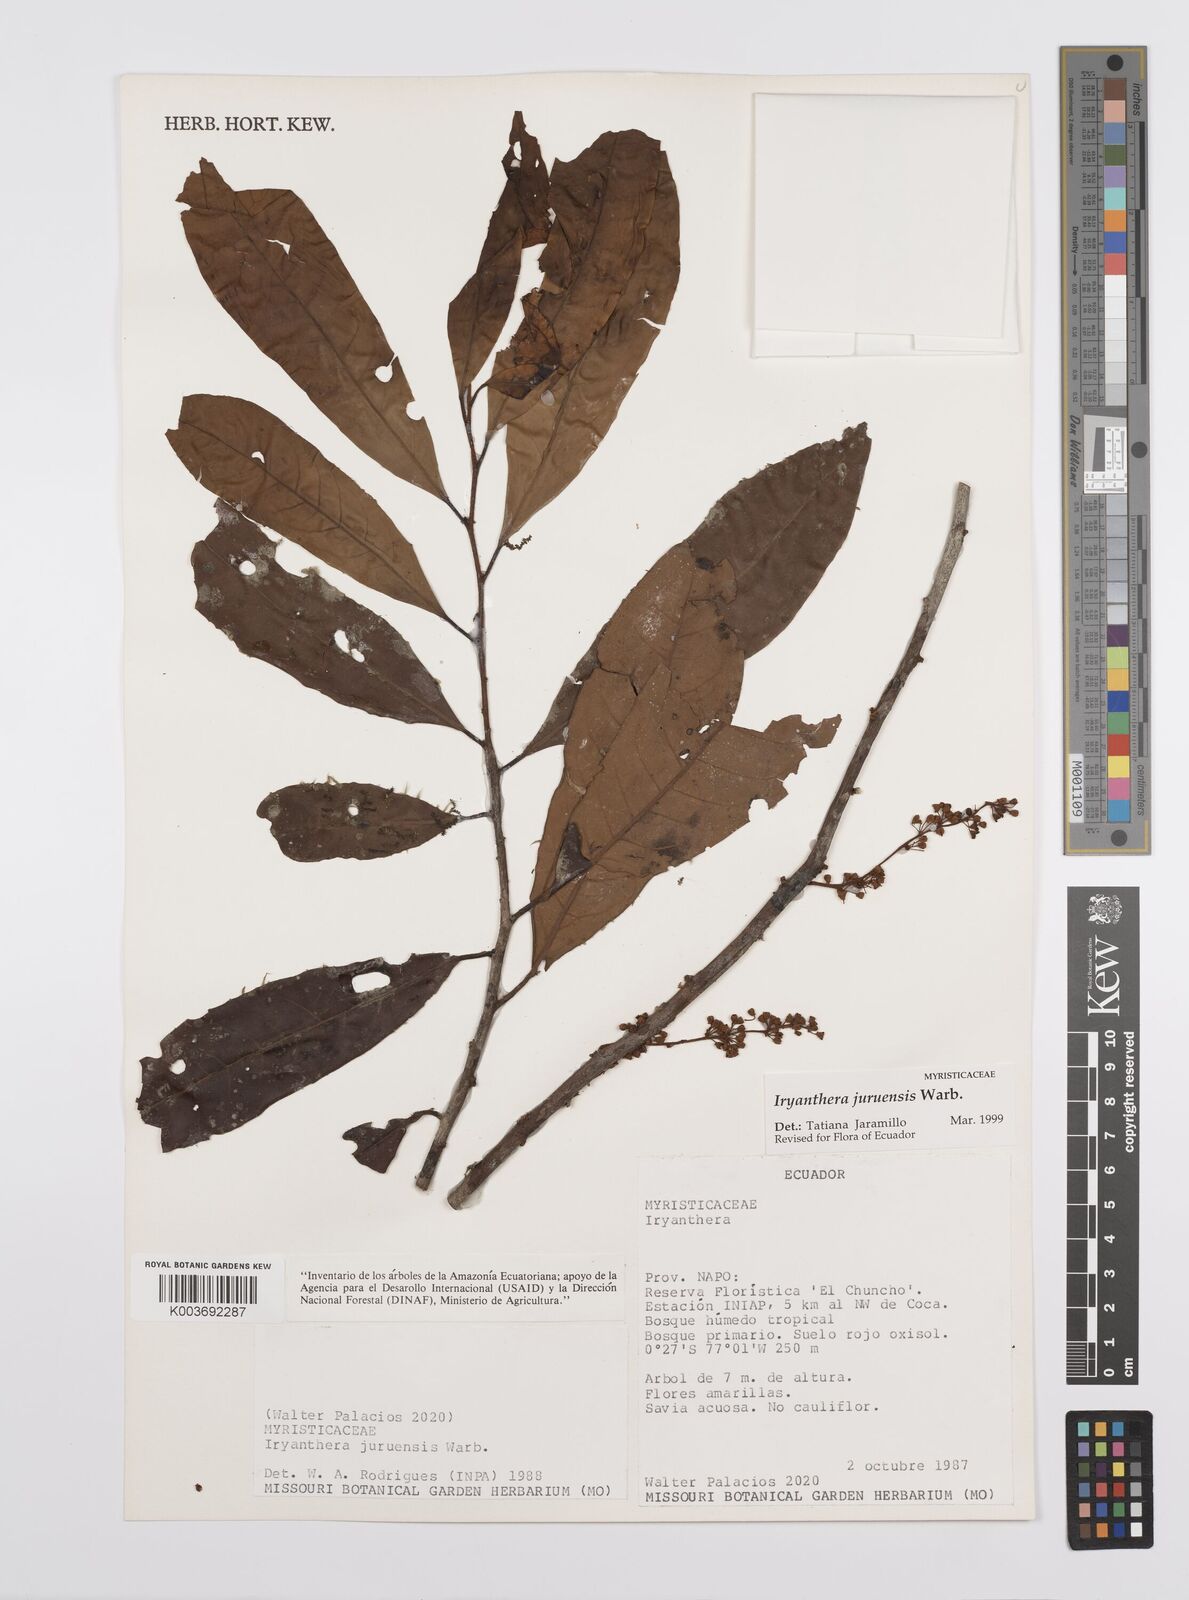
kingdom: Plantae
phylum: Tracheophyta
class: Magnoliopsida
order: Magnoliales
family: Myristicaceae
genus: Iryanthera
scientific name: Iryanthera juruensis
